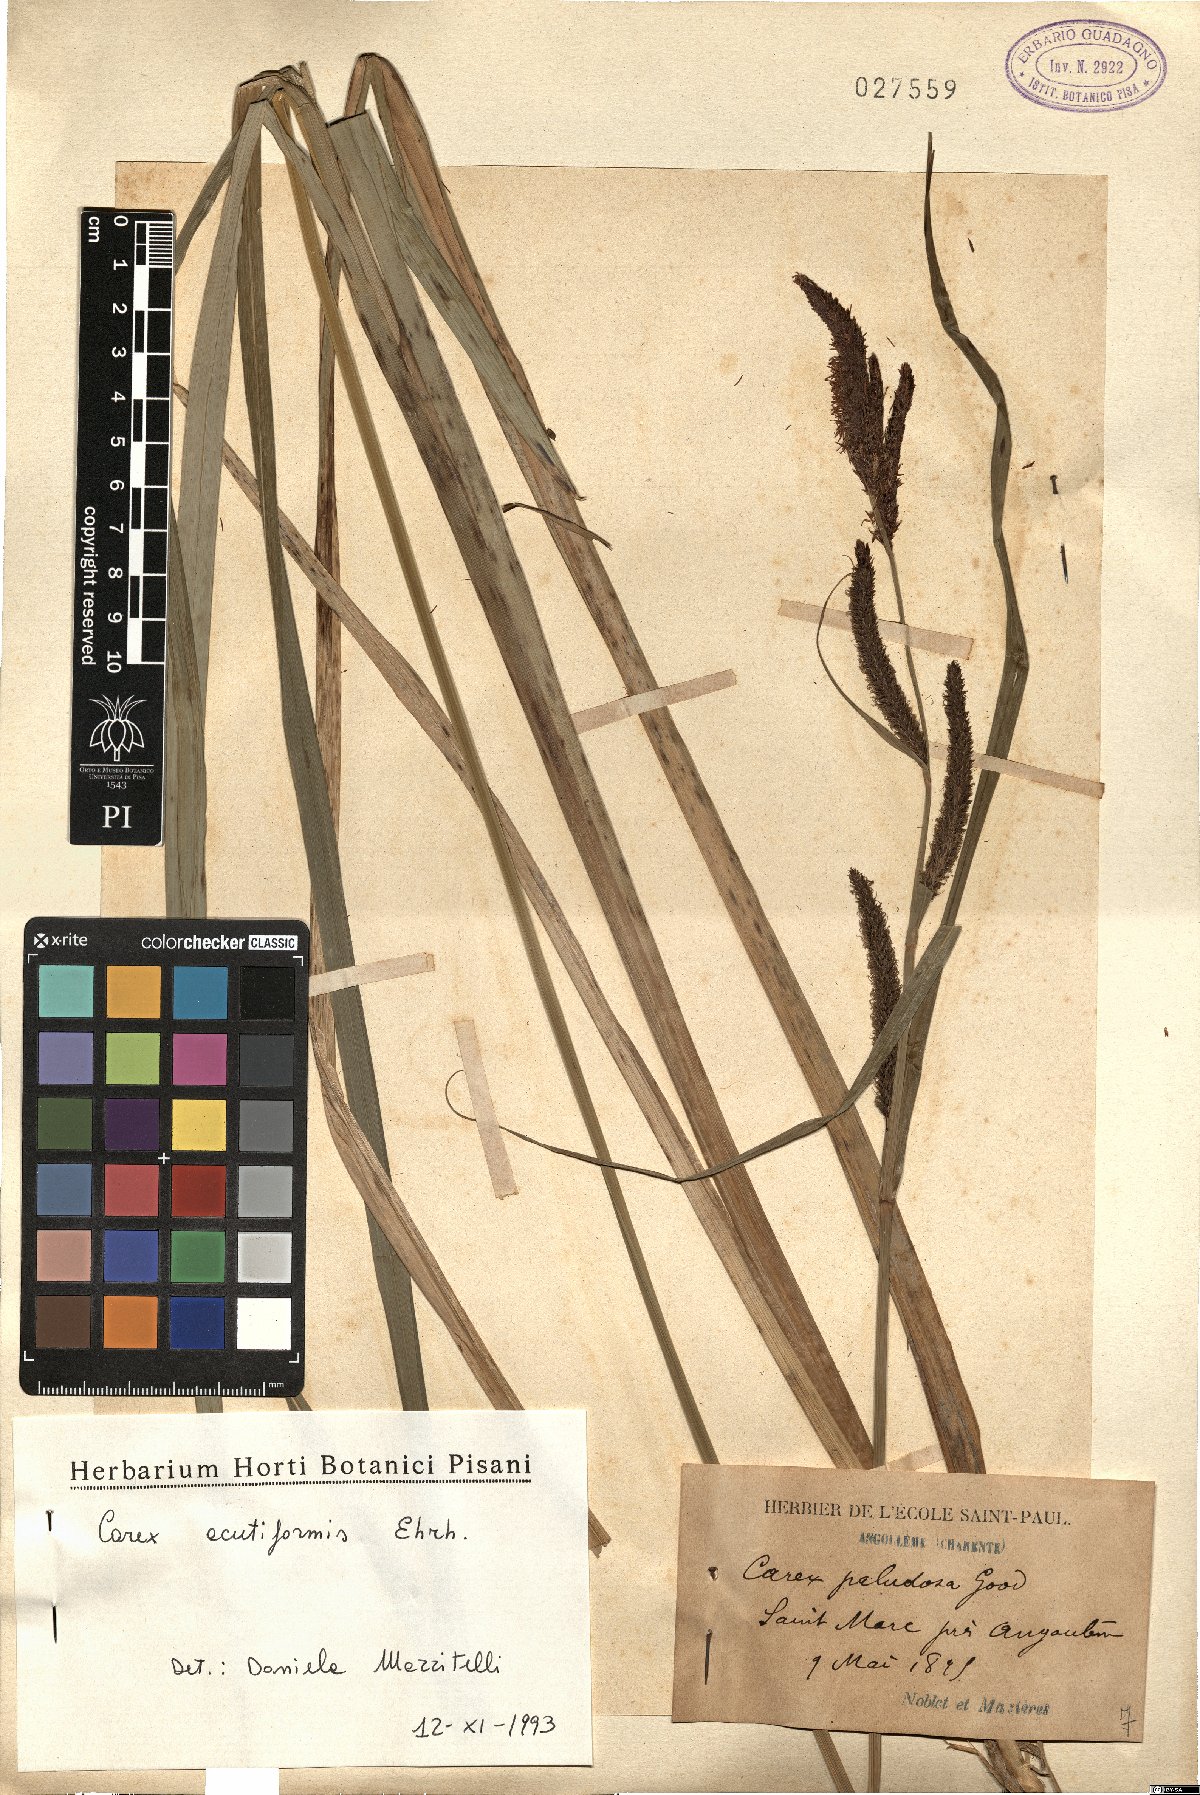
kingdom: Plantae
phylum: Tracheophyta
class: Liliopsida
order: Poales
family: Cyperaceae
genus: Carex
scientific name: Carex acutiformis
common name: Lesser pond-sedge
